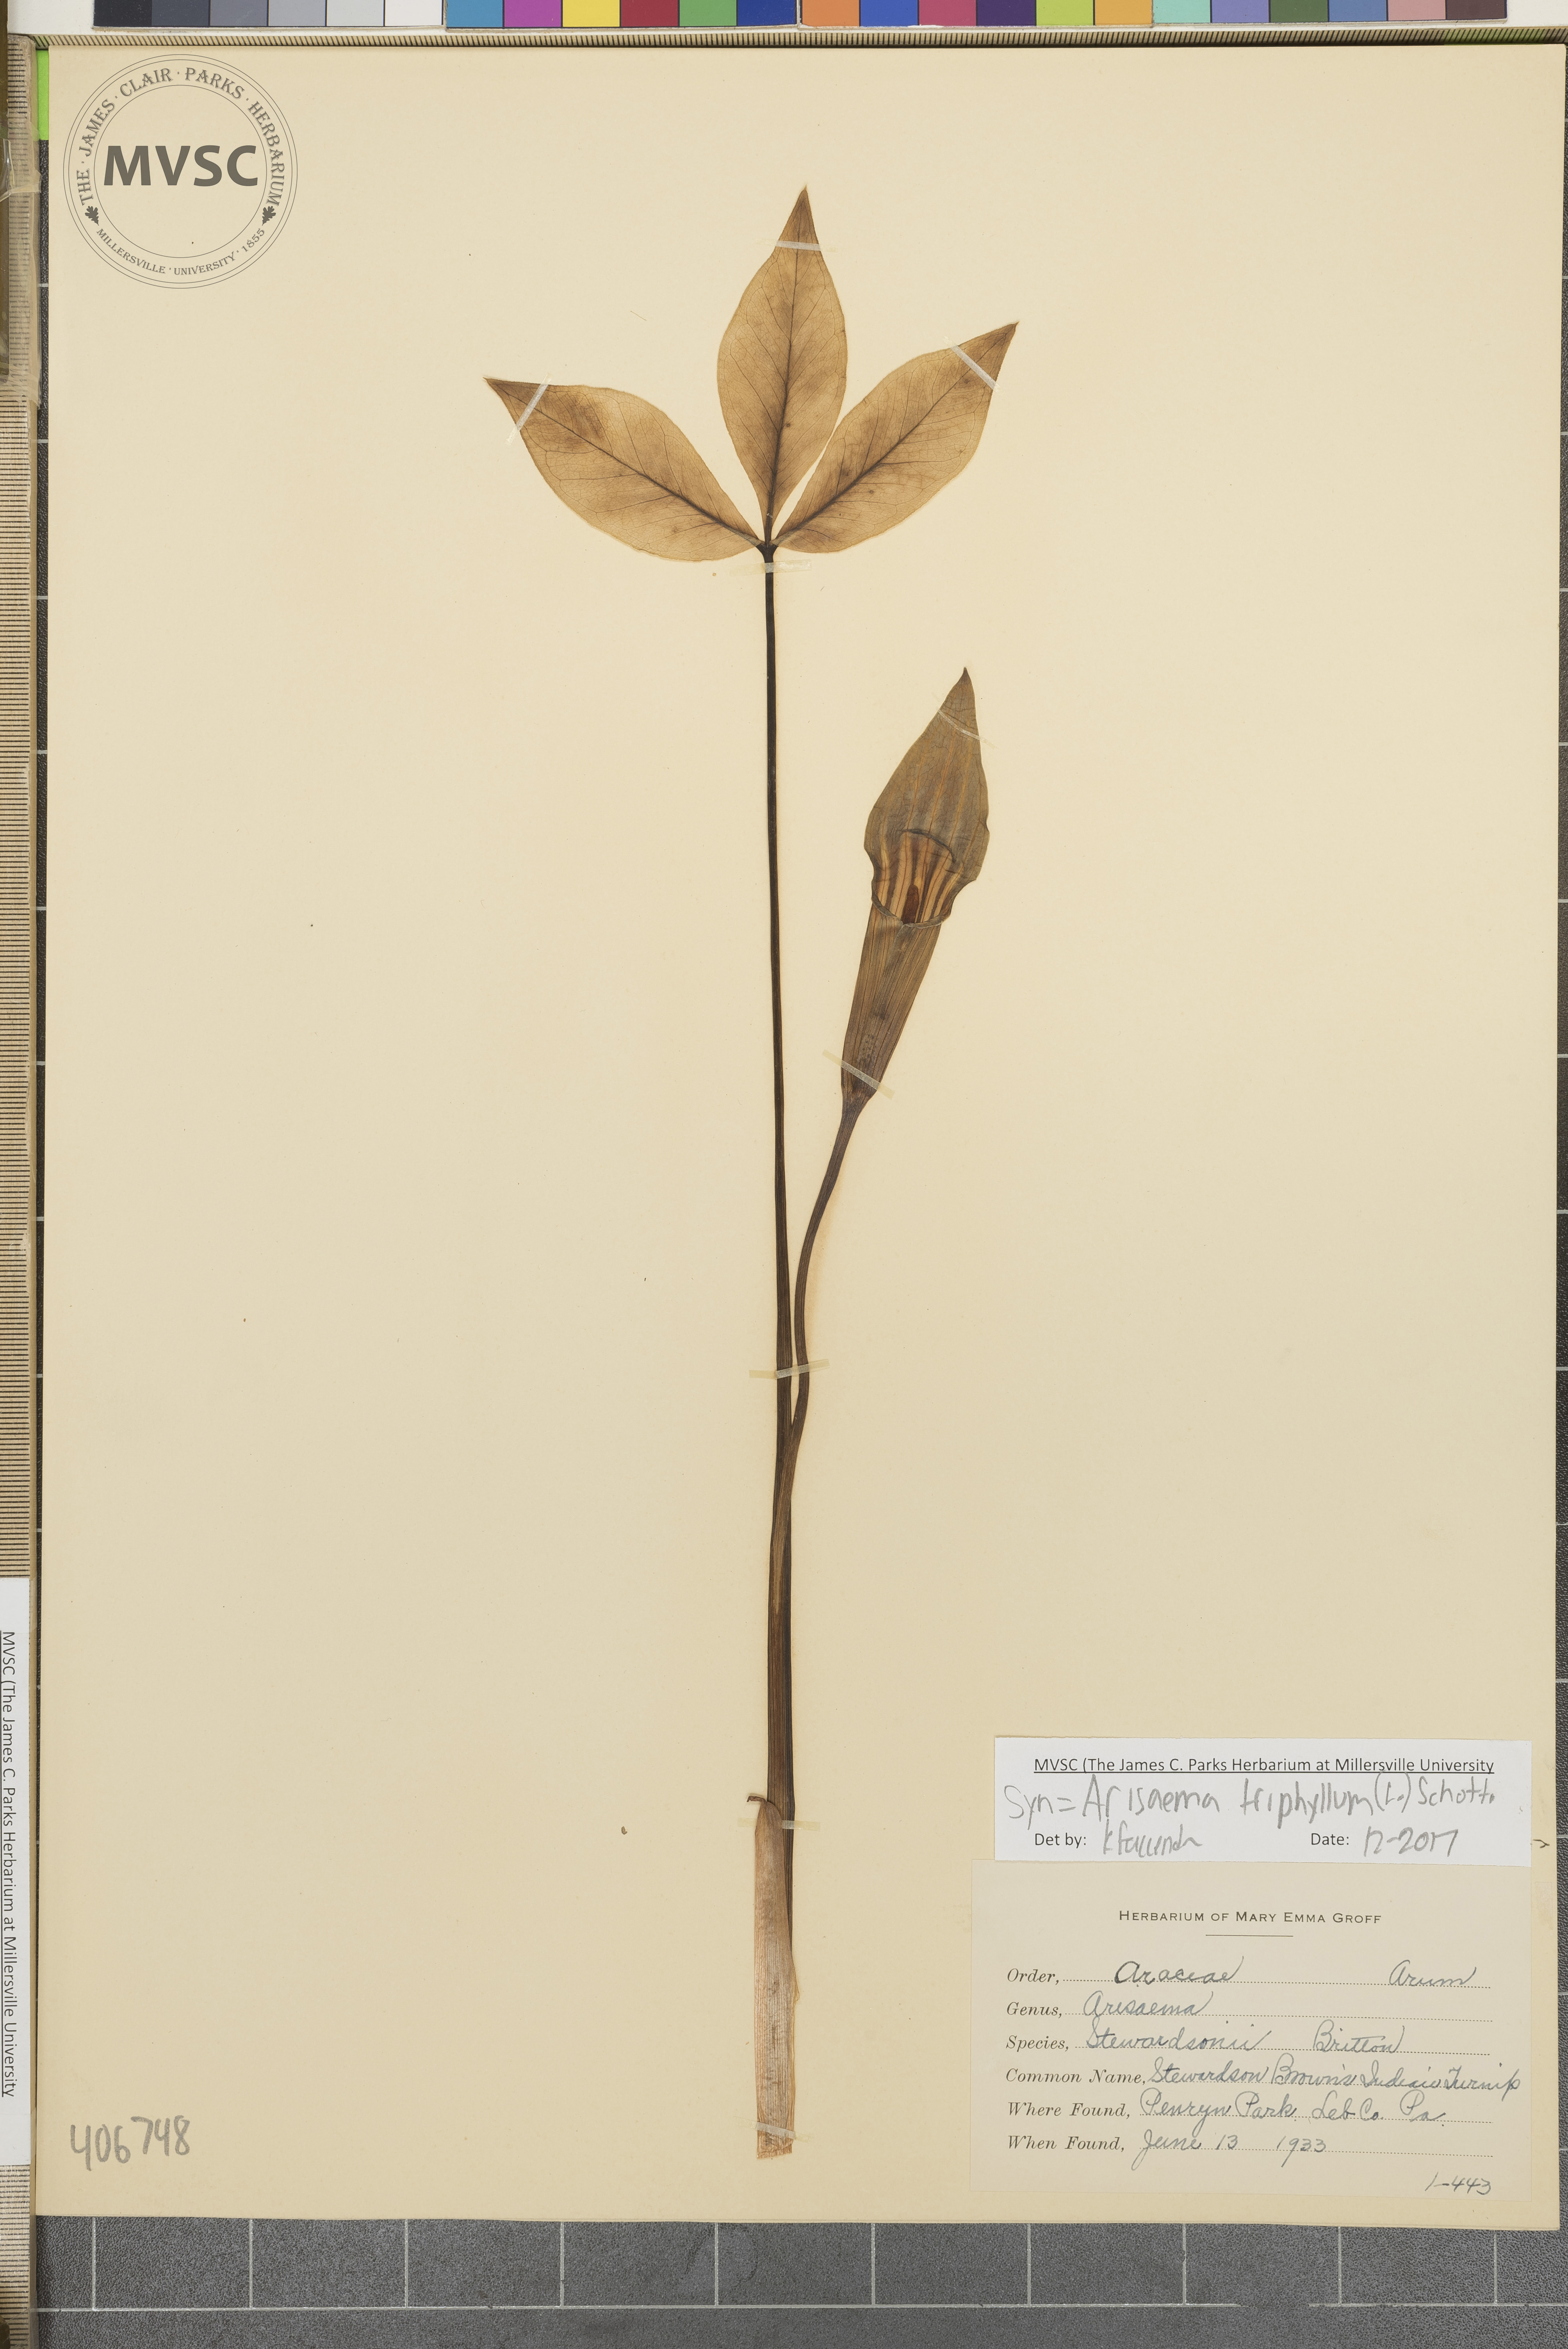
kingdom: Plantae
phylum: Tracheophyta
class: Liliopsida
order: Alismatales
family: Araceae
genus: Arisaema
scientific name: Arisaema triphyllum
